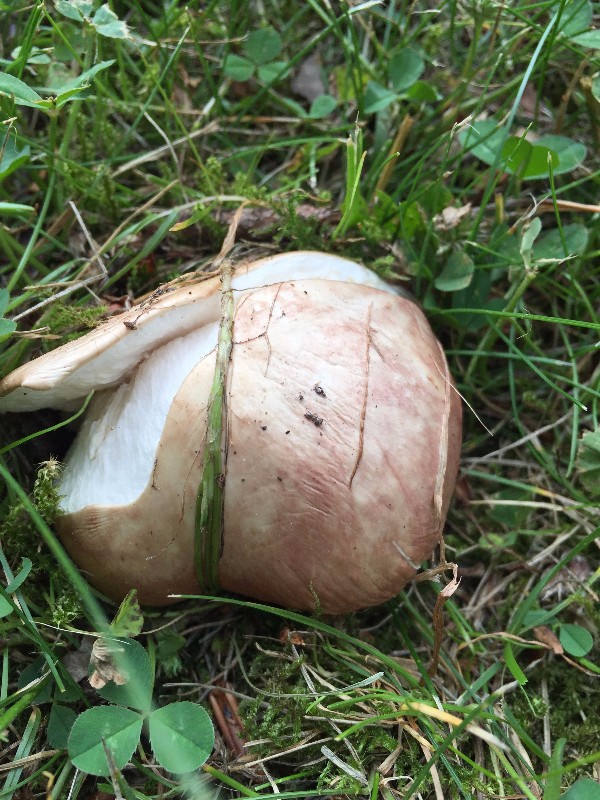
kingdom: Fungi
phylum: Basidiomycota
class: Agaricomycetes
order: Russulales
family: Russulaceae
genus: Russula
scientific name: Russula depallens
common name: falmende skørhat
